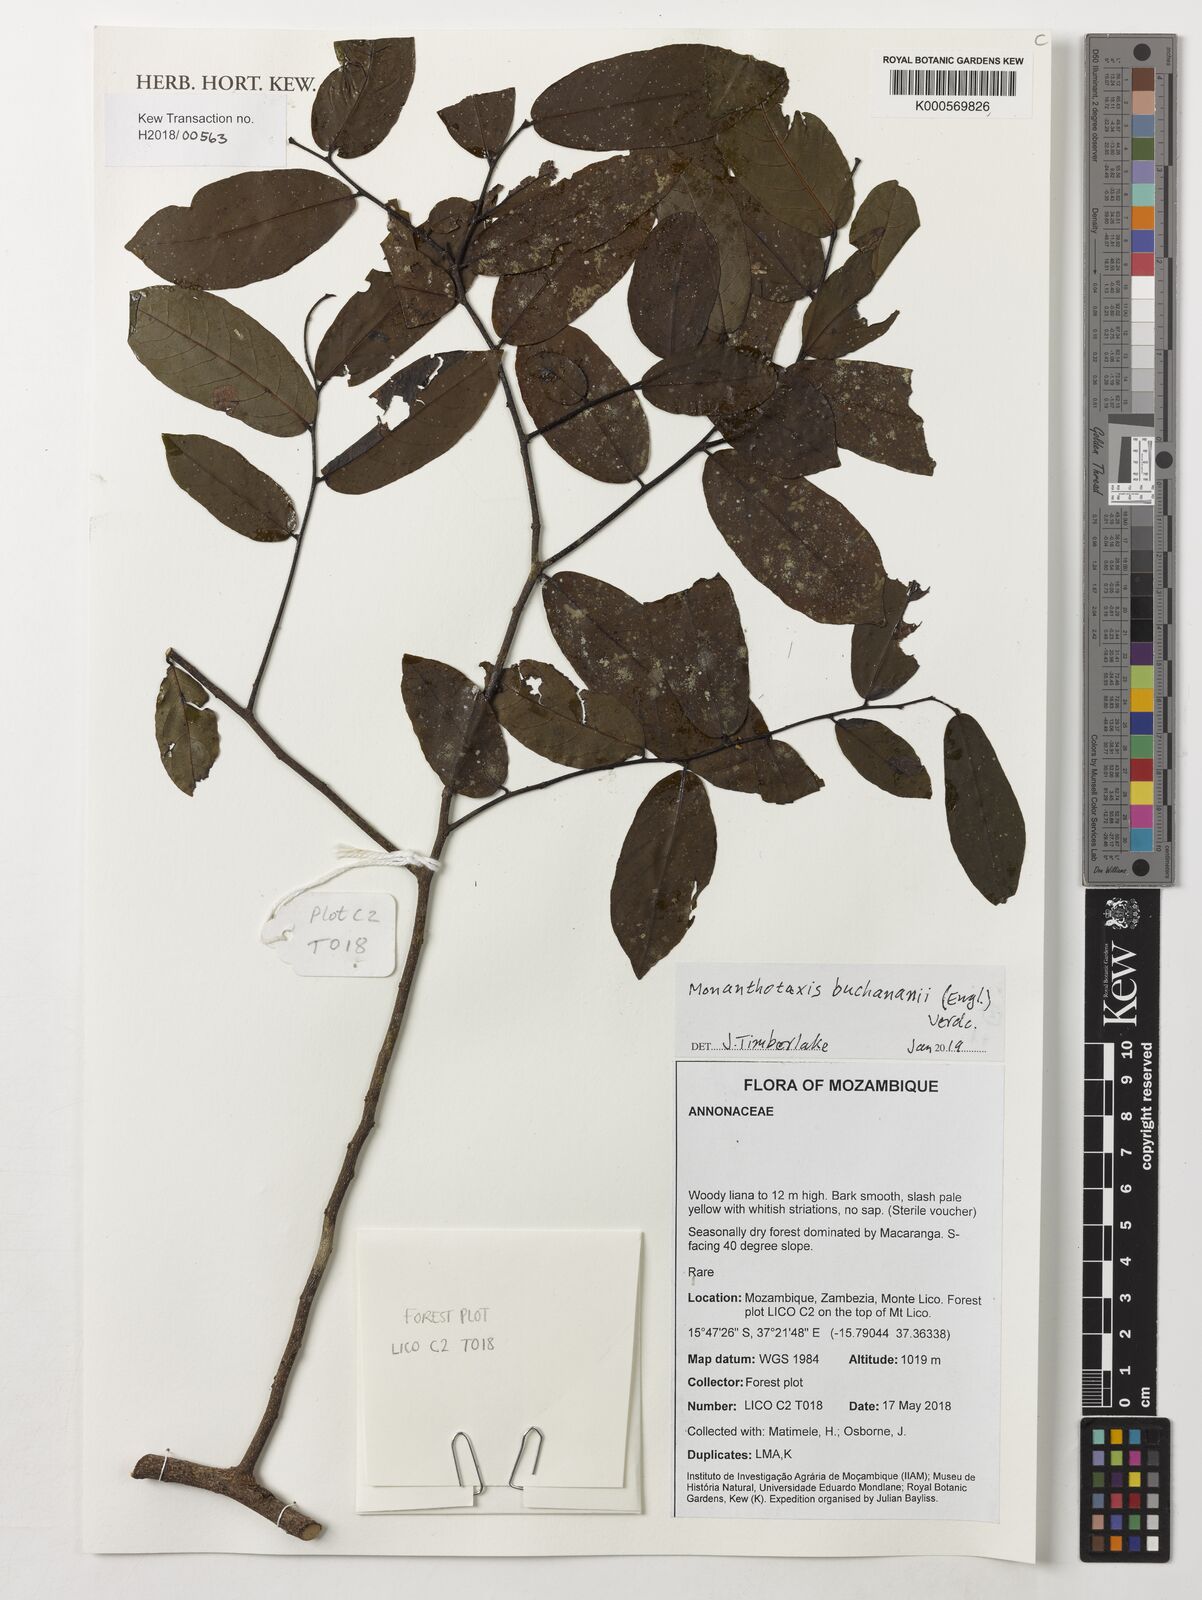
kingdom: Plantae
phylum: Tracheophyta
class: Magnoliopsida
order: Magnoliales
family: Annonaceae
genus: Monanthotaxis
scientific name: Monanthotaxis buchananii
